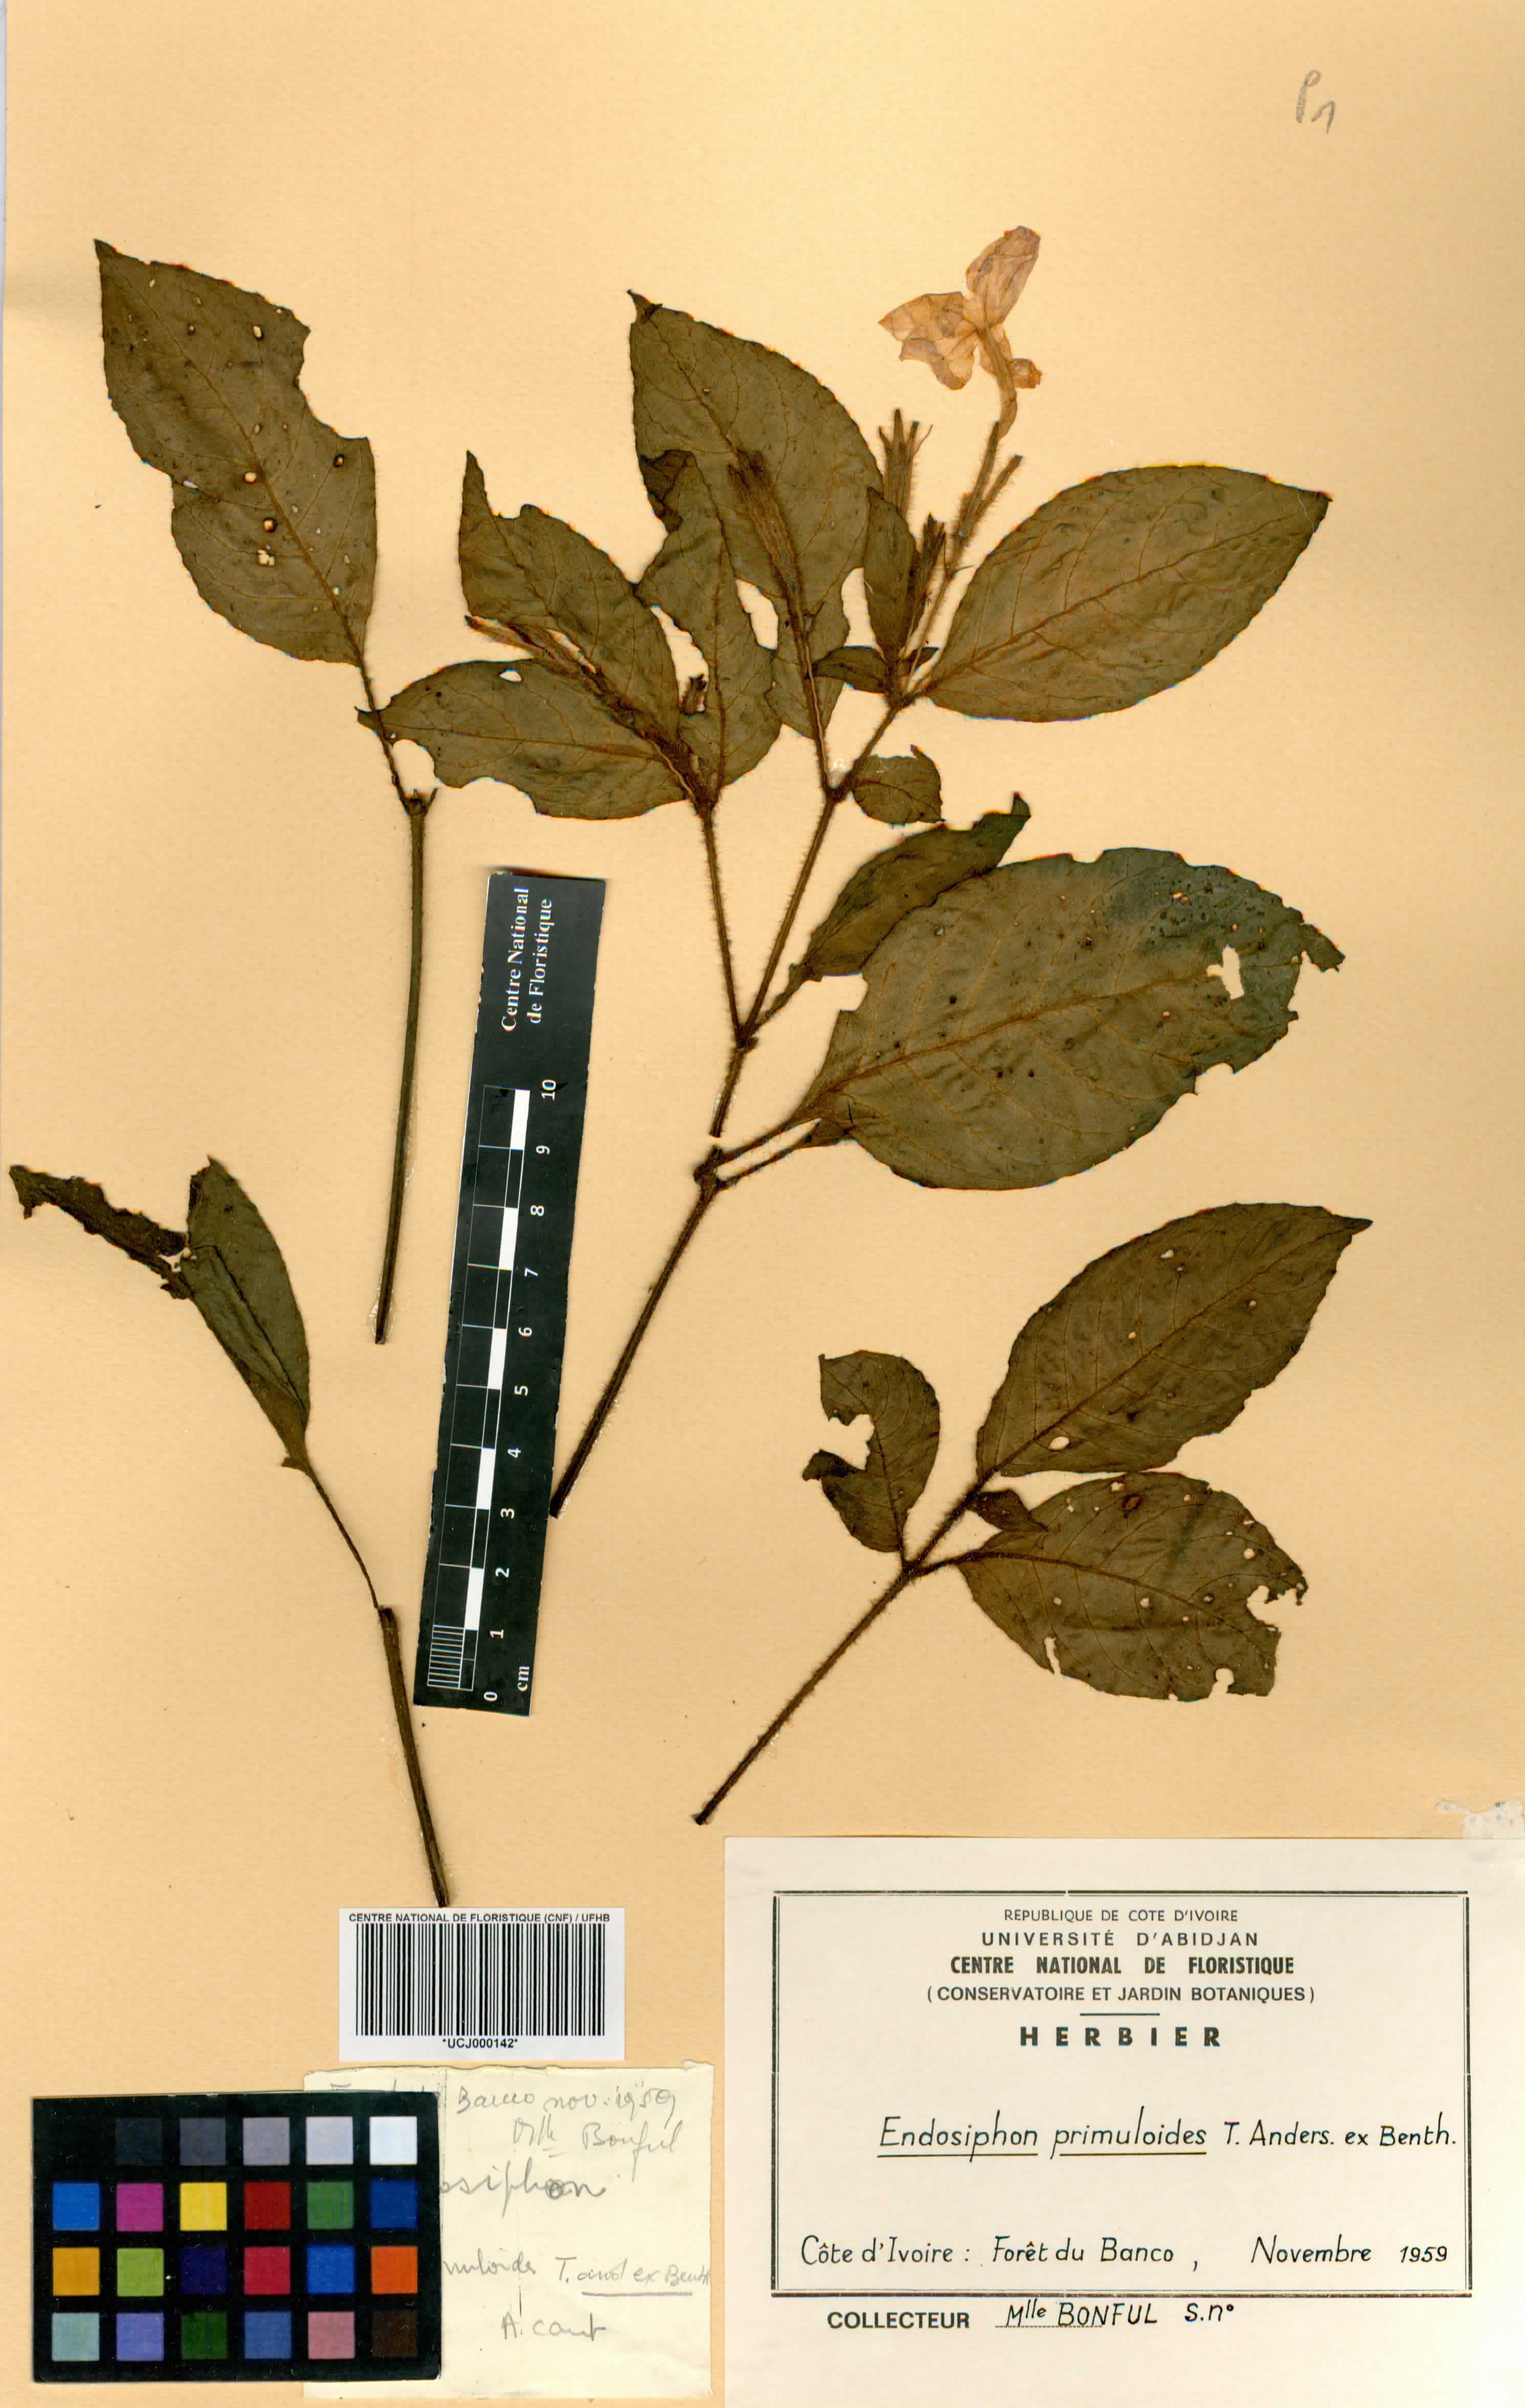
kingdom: Plantae
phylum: Tracheophyta
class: Magnoliopsida
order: Lamiales
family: Acanthaceae
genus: Ruellia
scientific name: Ruellia primuloides
